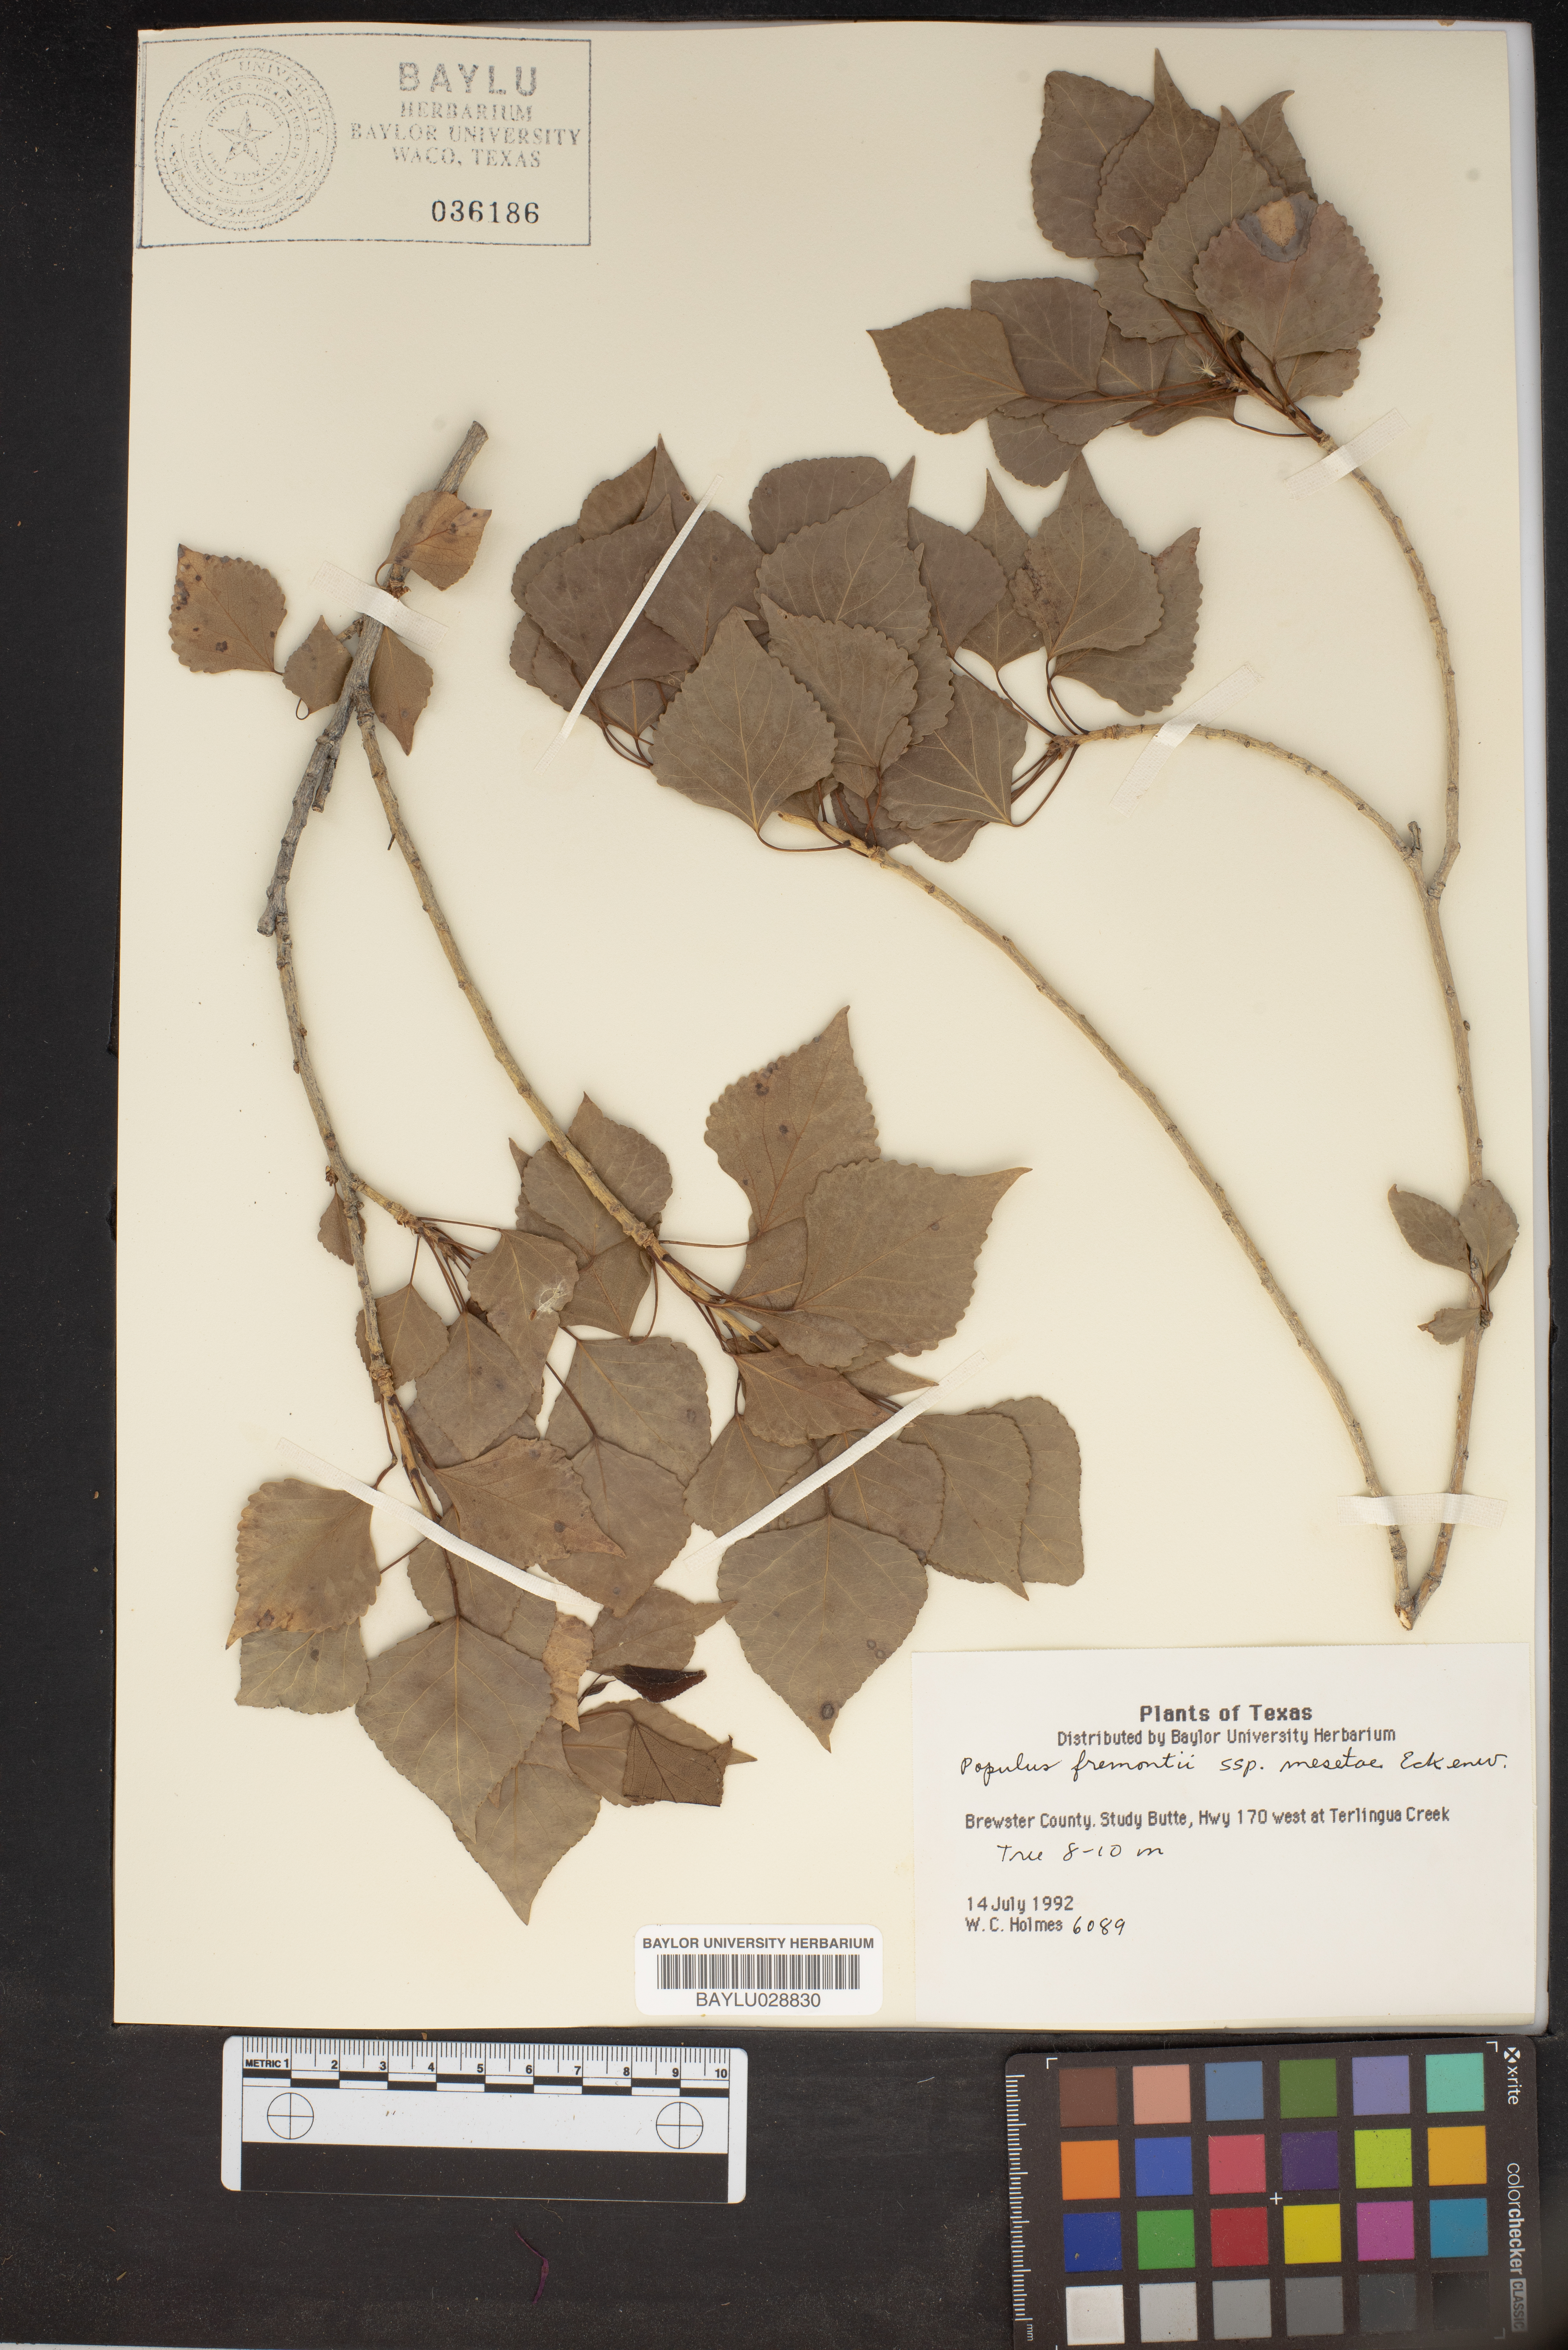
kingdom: Plantae
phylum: Tracheophyta
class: Magnoliopsida
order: Malpighiales
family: Salicaceae
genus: Populus
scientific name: Populus fremontii
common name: Fremont's cottonwood
